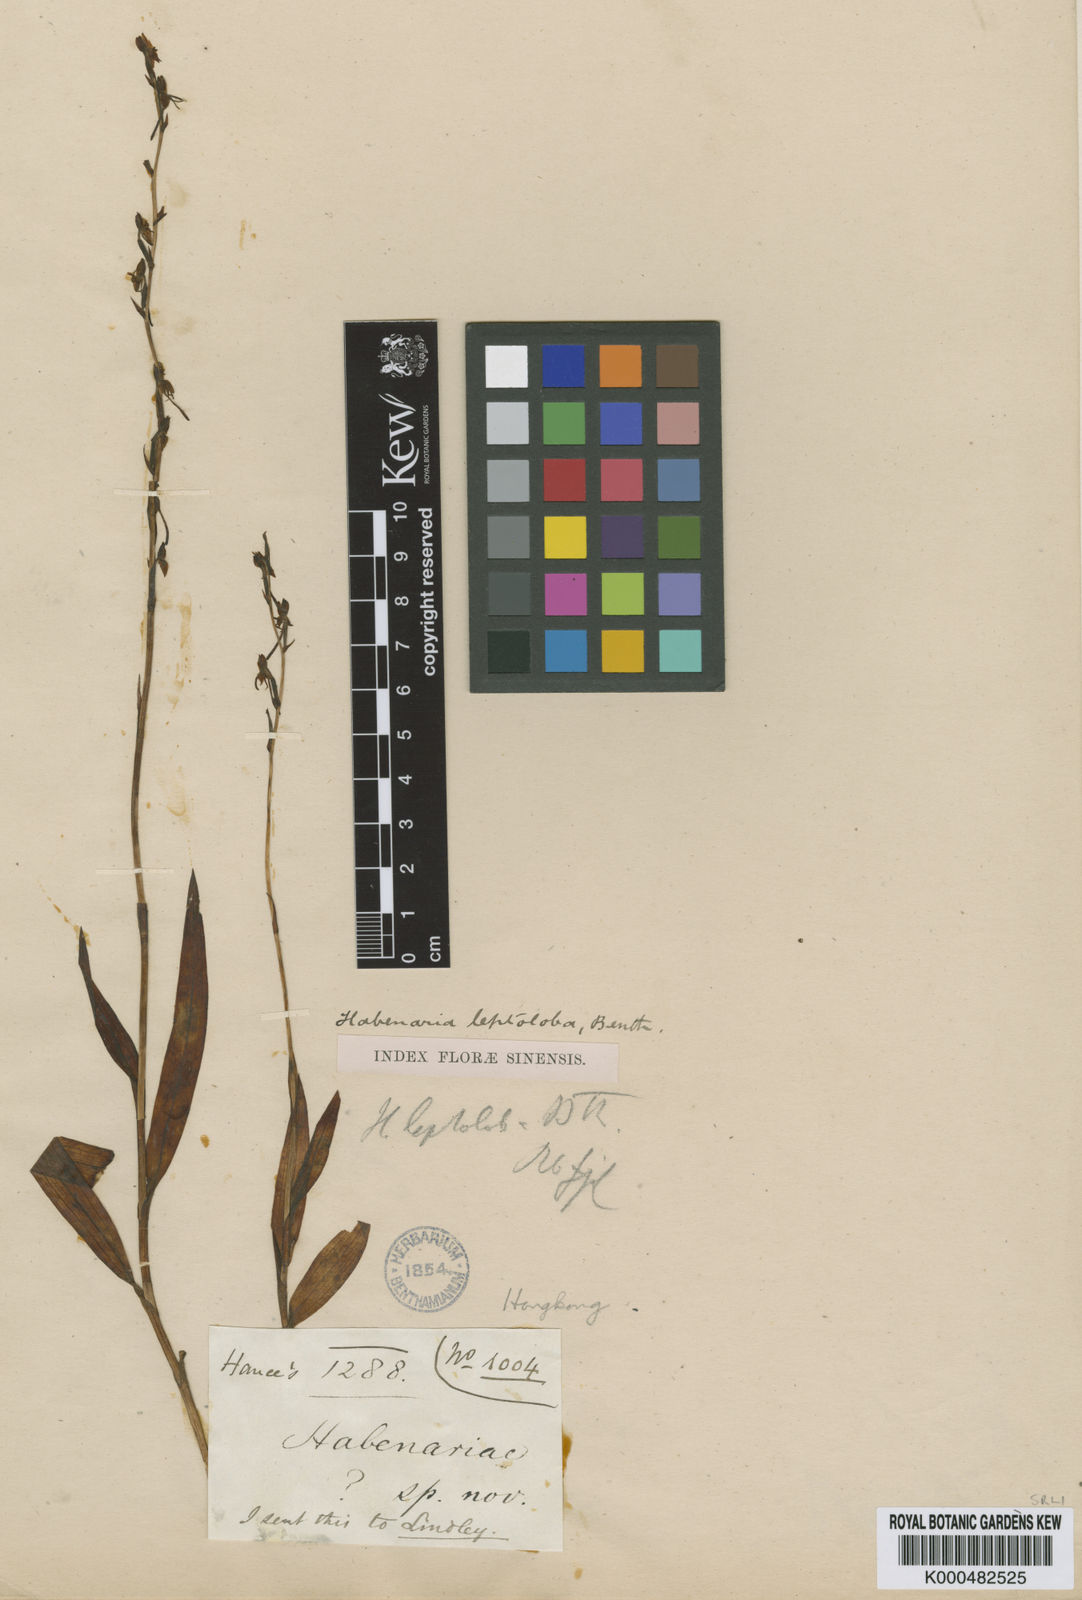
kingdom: Plantae
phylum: Tracheophyta
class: Liliopsida
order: Asparagales
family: Orchidaceae
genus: Habenaria
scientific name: Habenaria leptoloba
